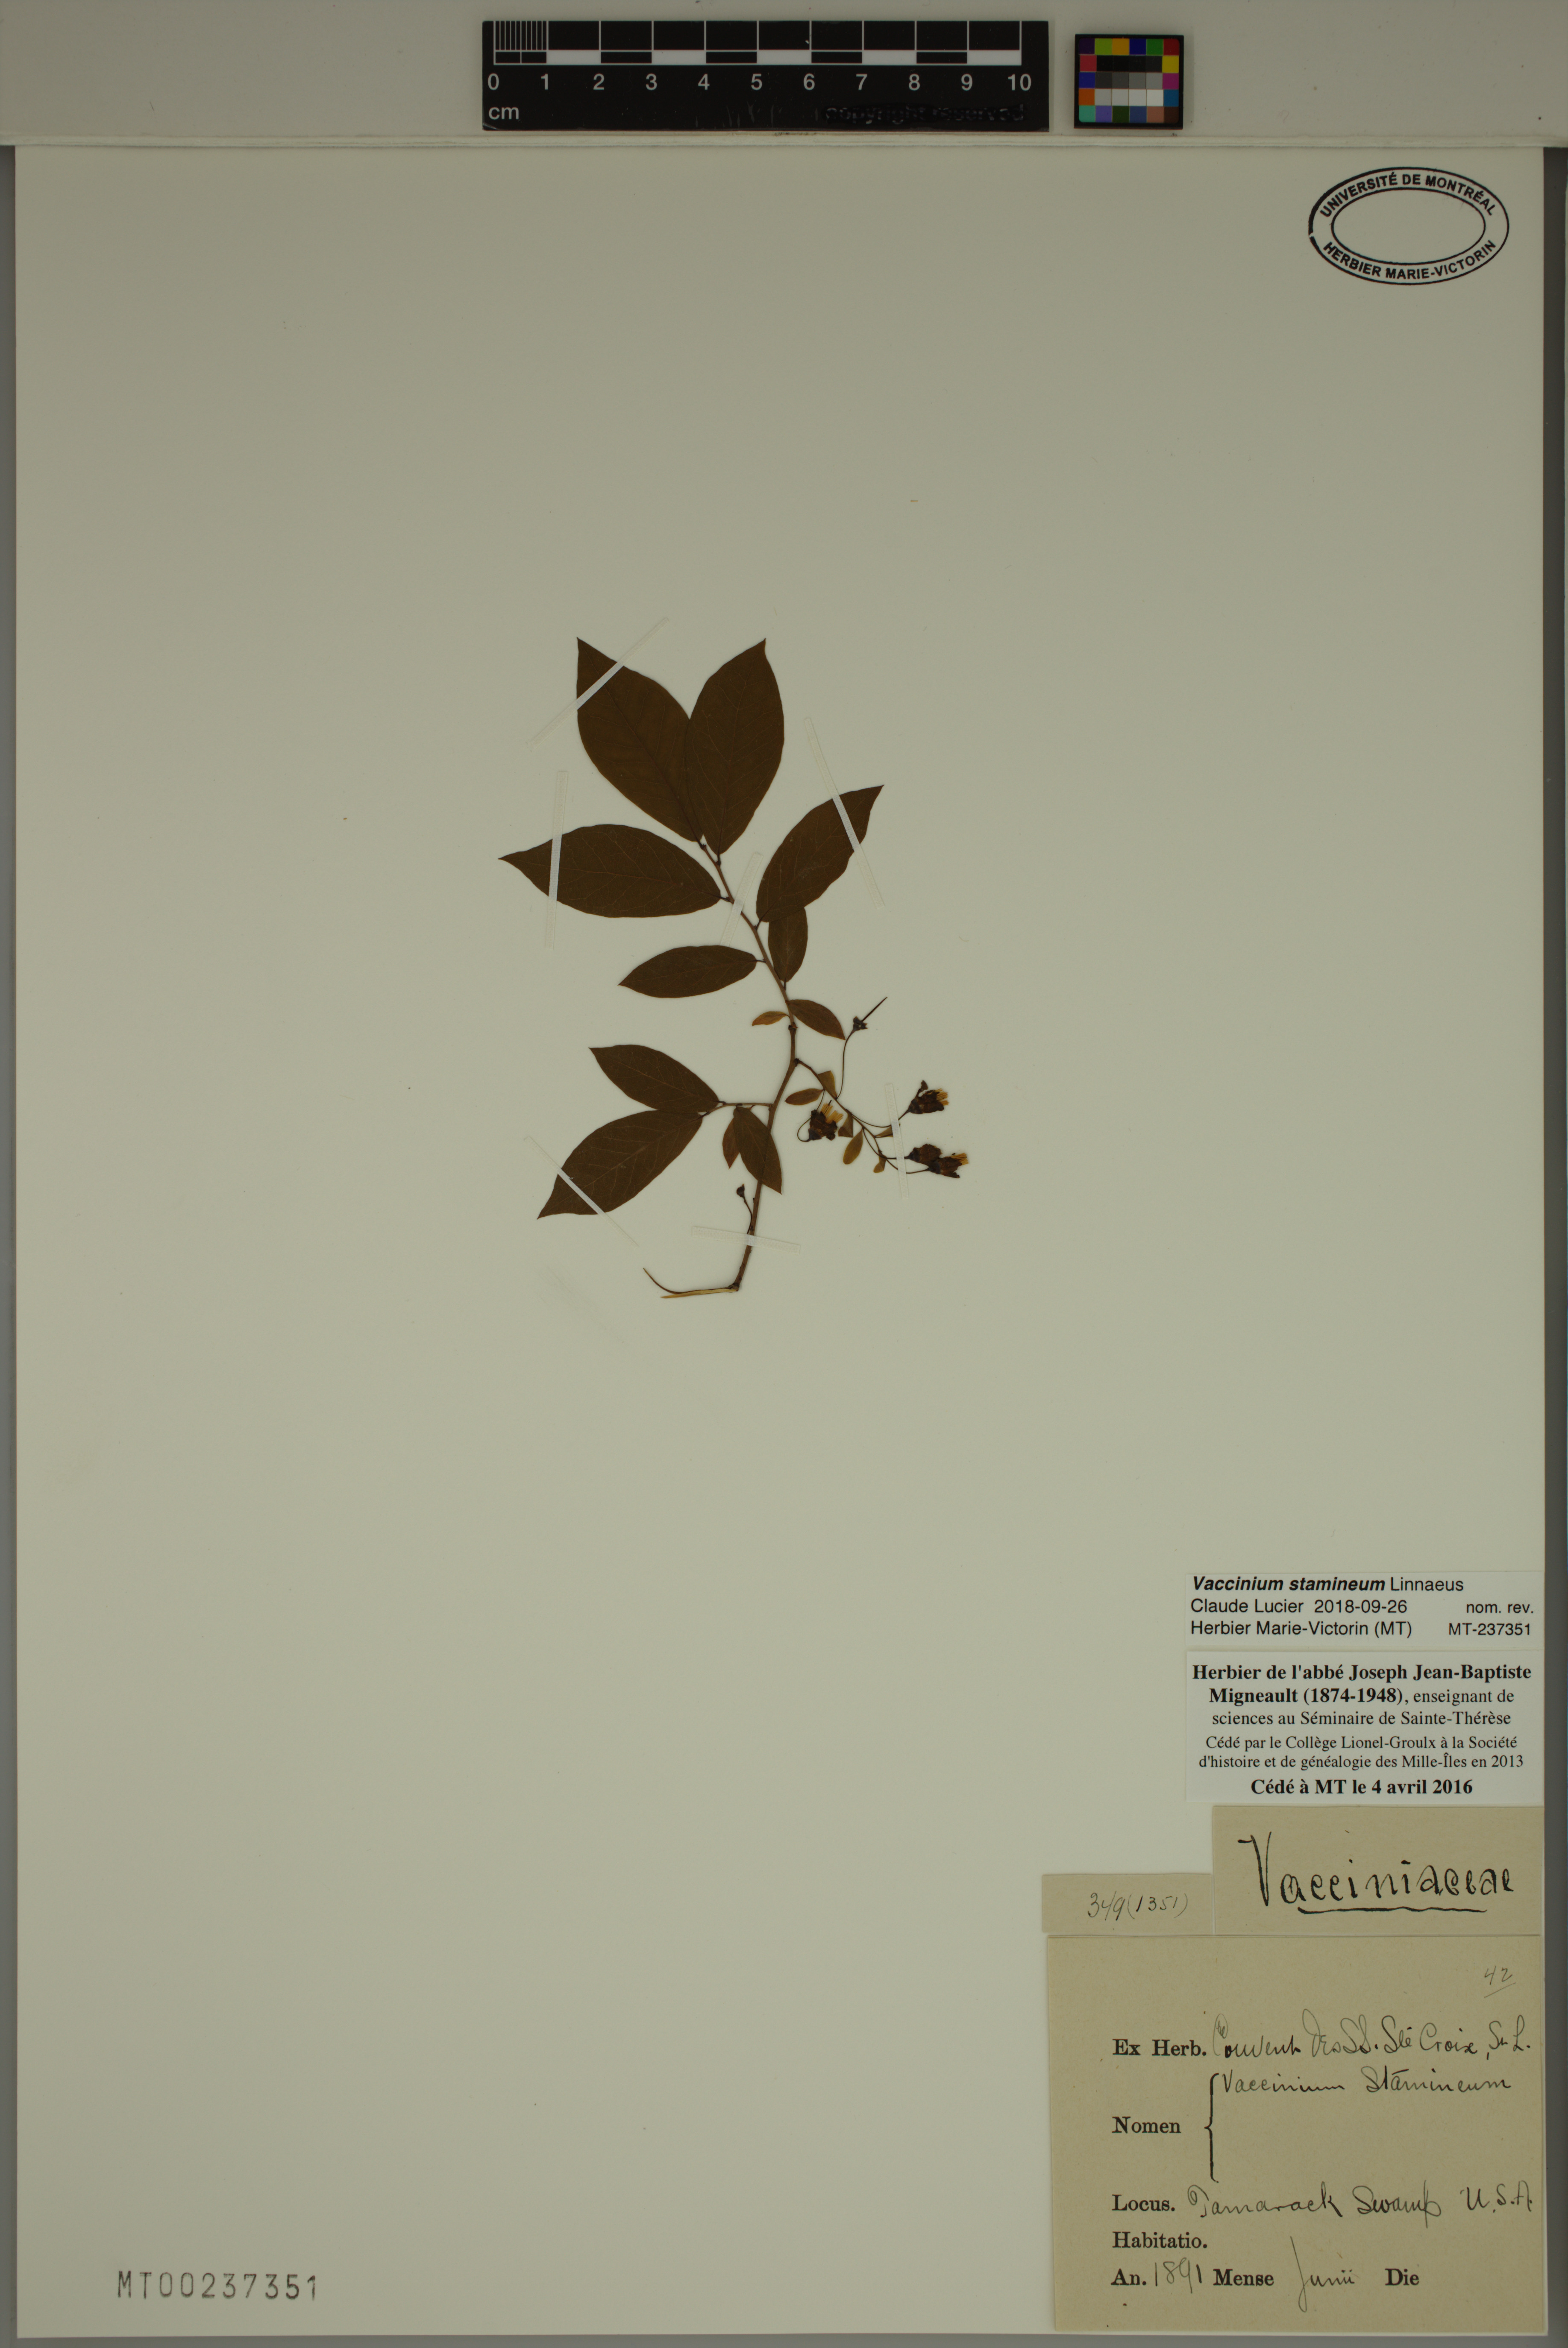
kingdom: Plantae
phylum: Tracheophyta
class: Magnoliopsida
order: Ericales
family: Ericaceae
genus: Vaccinium
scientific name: Vaccinium stamineum
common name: Deerberry
